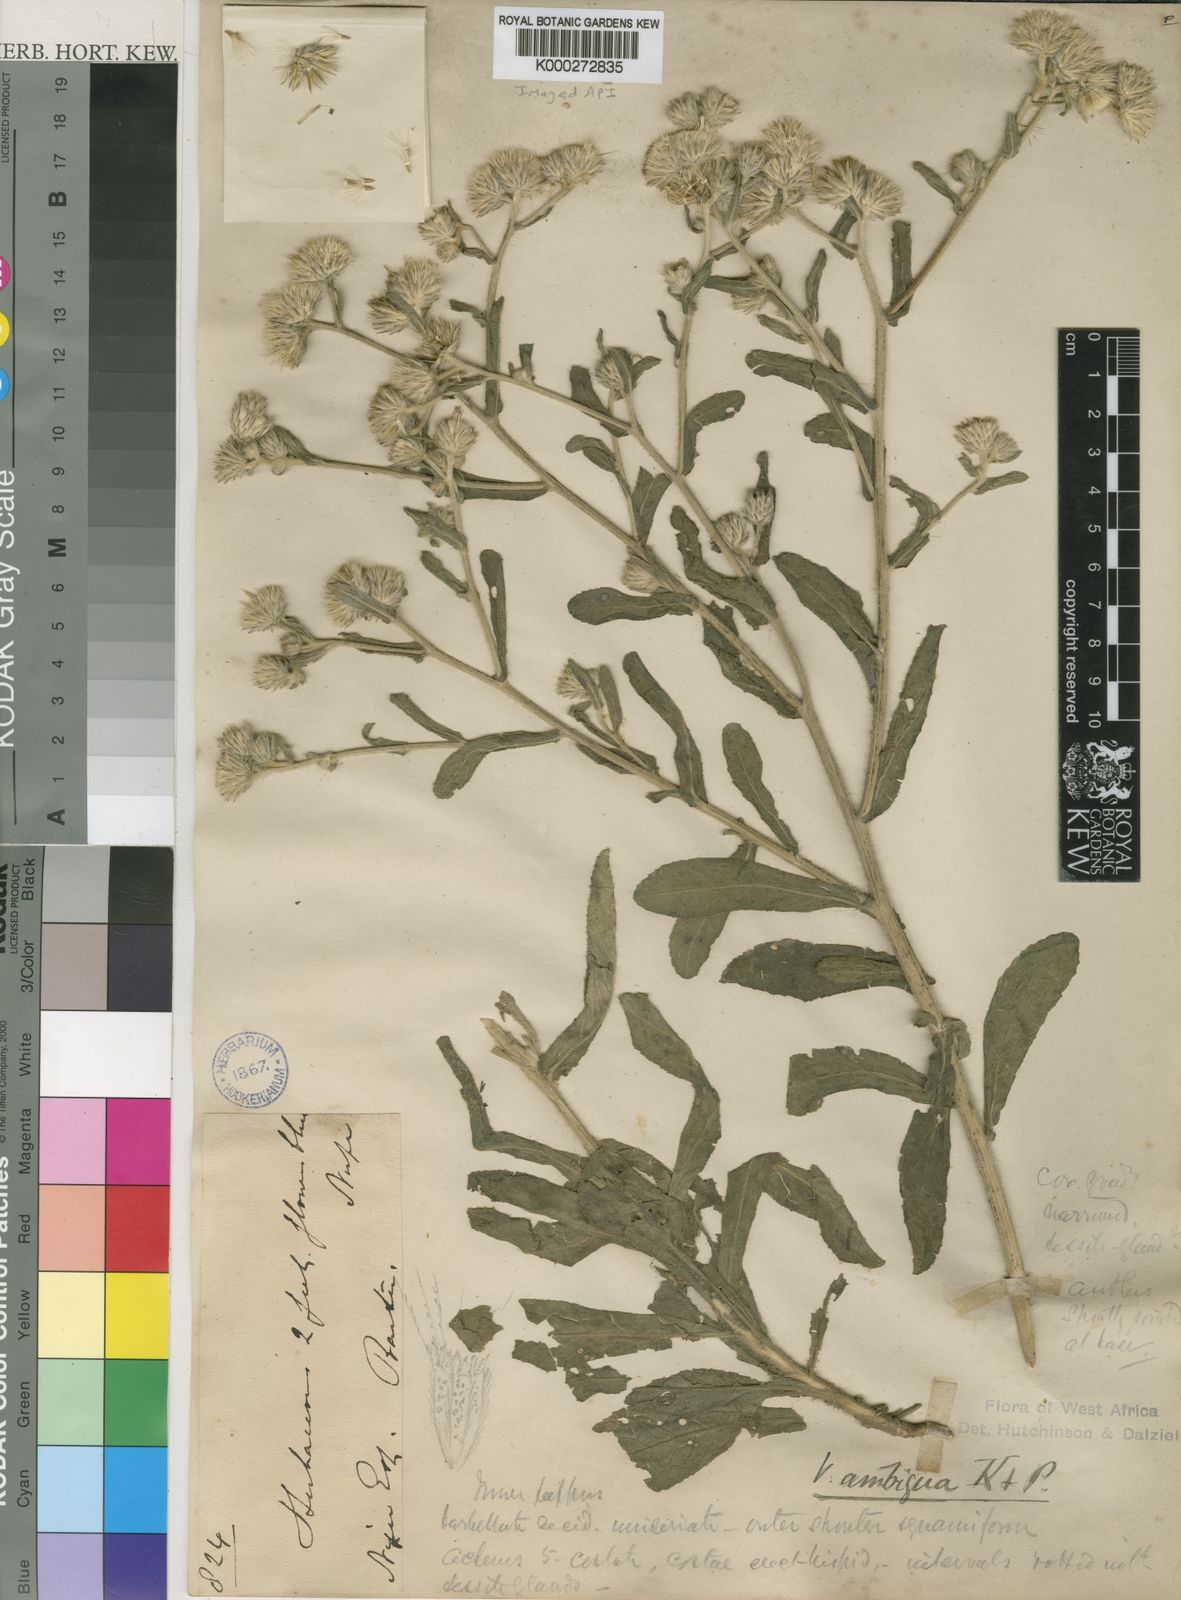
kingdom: Plantae
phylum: Tracheophyta
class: Magnoliopsida
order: Asterales
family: Asteraceae
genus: Vernoniastrum
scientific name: Vernoniastrum ambiguum
